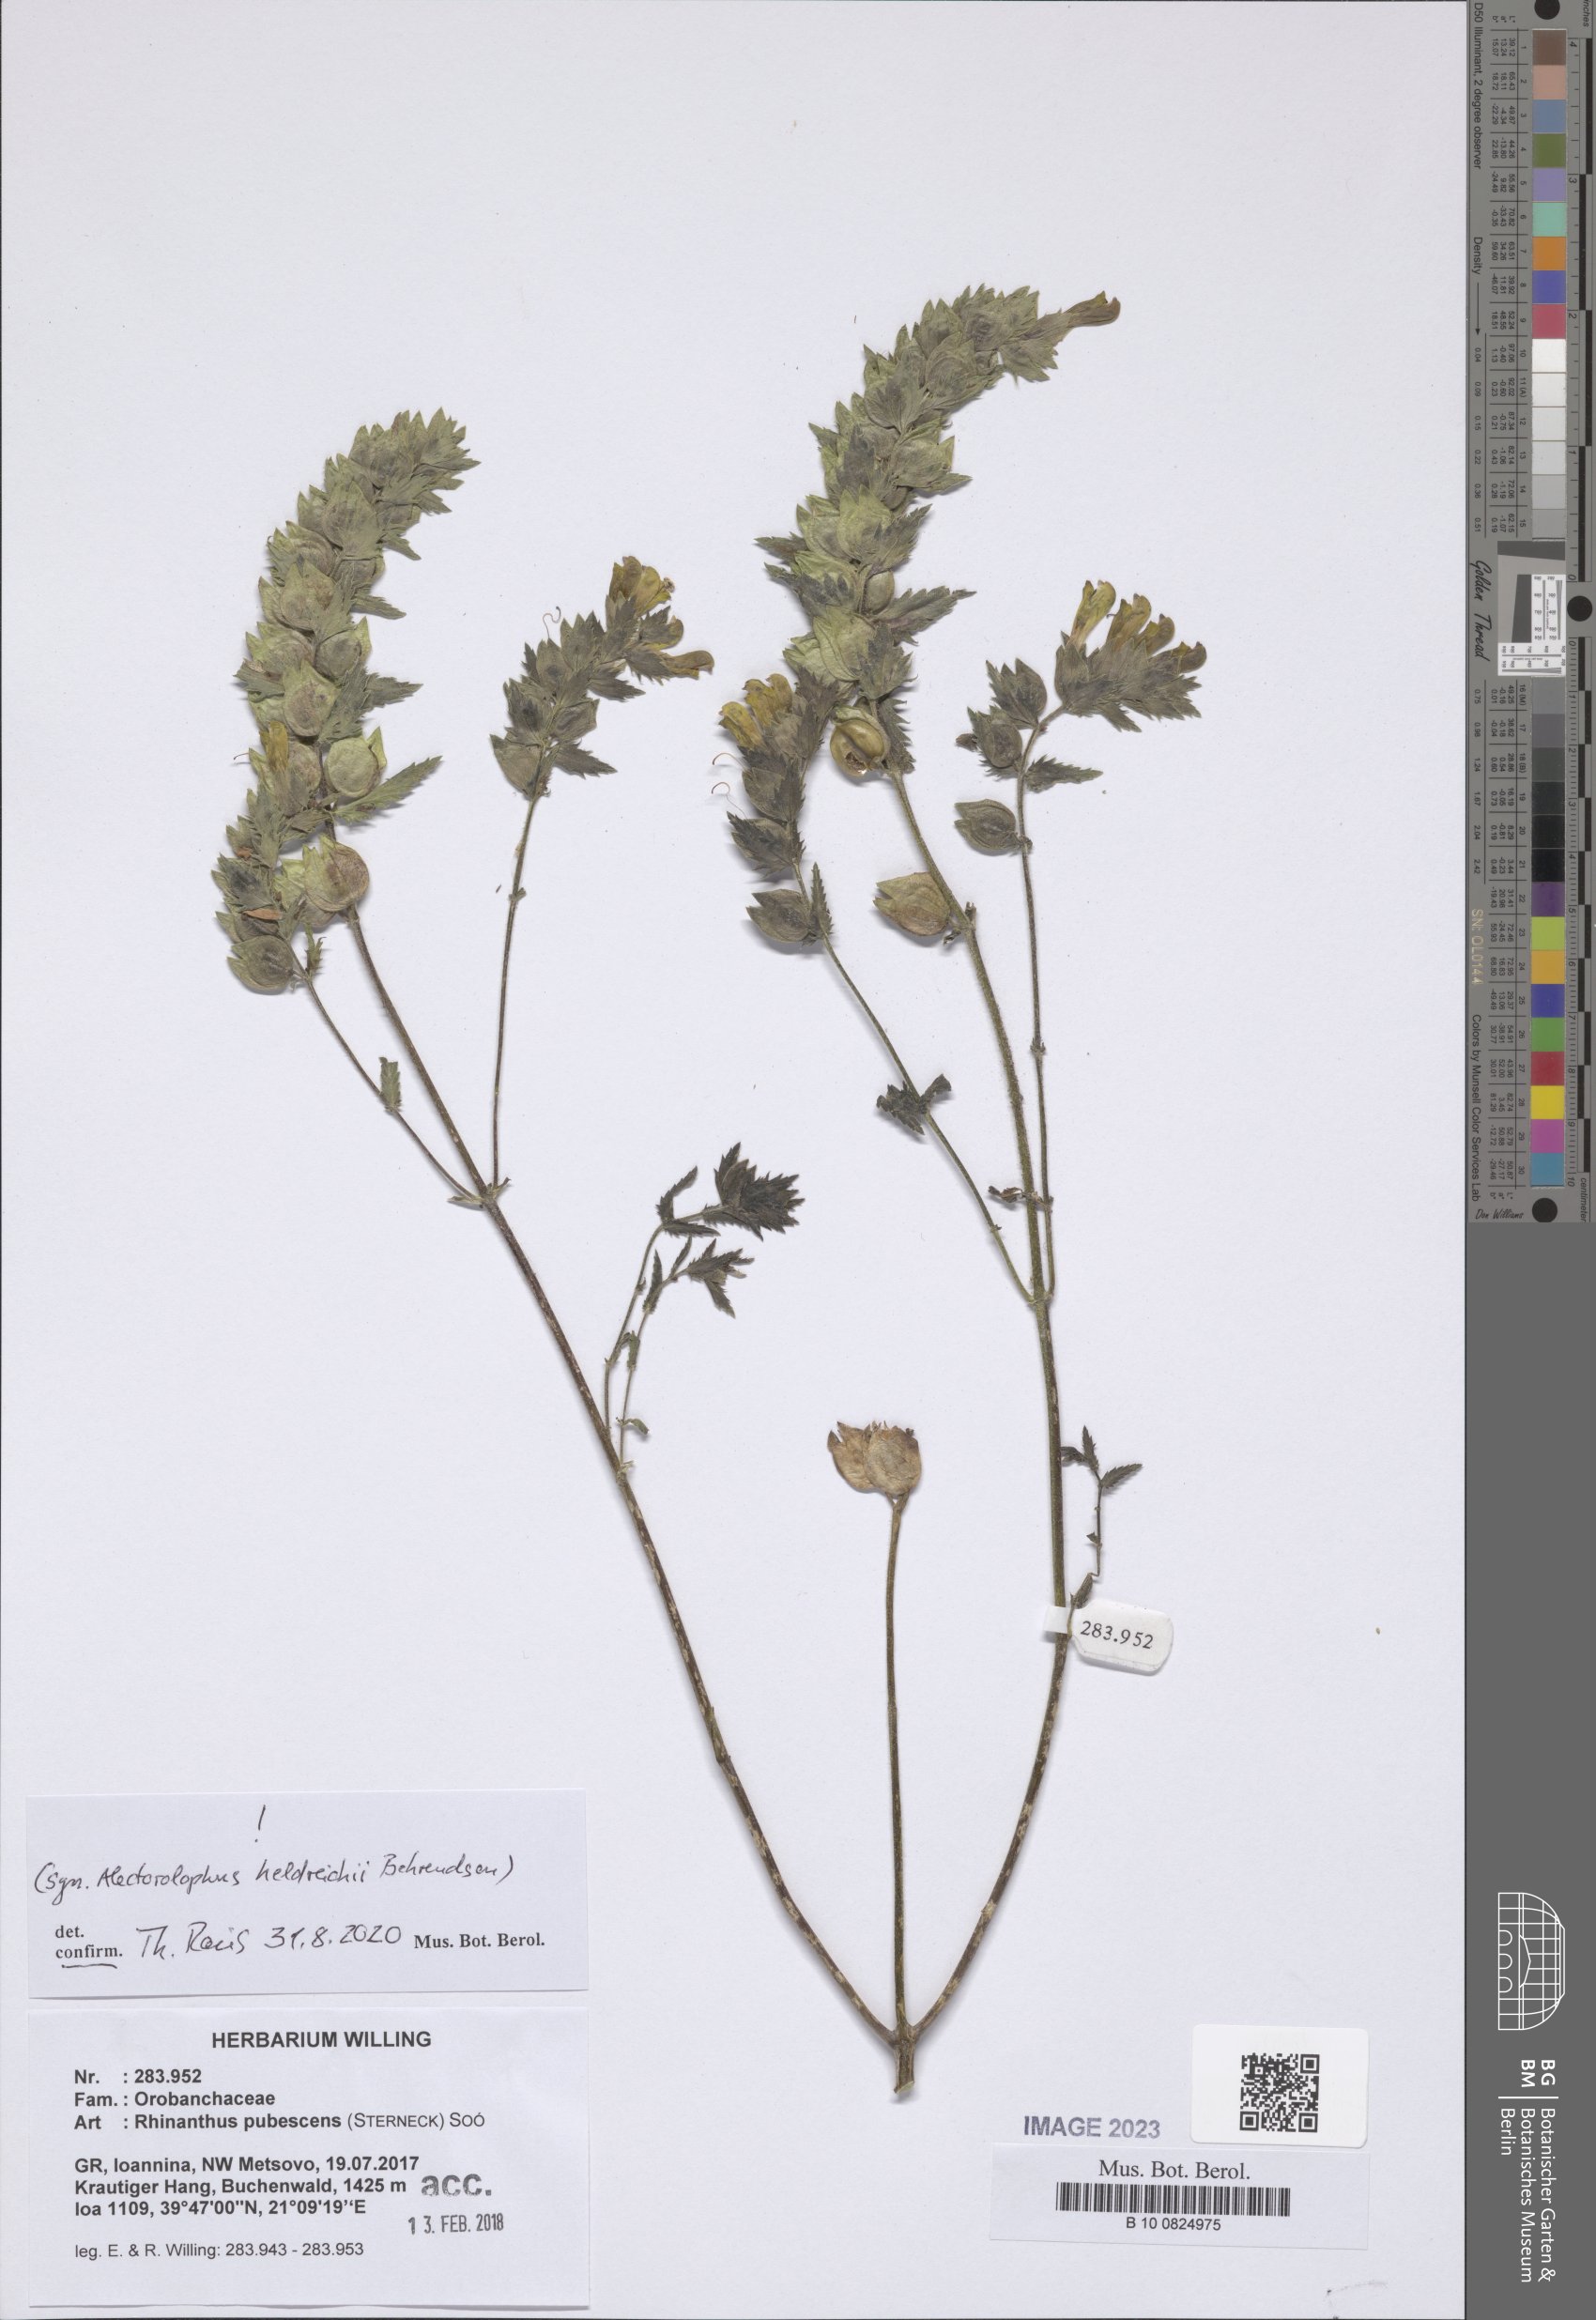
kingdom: Plantae
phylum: Tracheophyta
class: Magnoliopsida
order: Lamiales
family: Orobanchaceae
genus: Rhinanthus
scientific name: Rhinanthus pubescens
